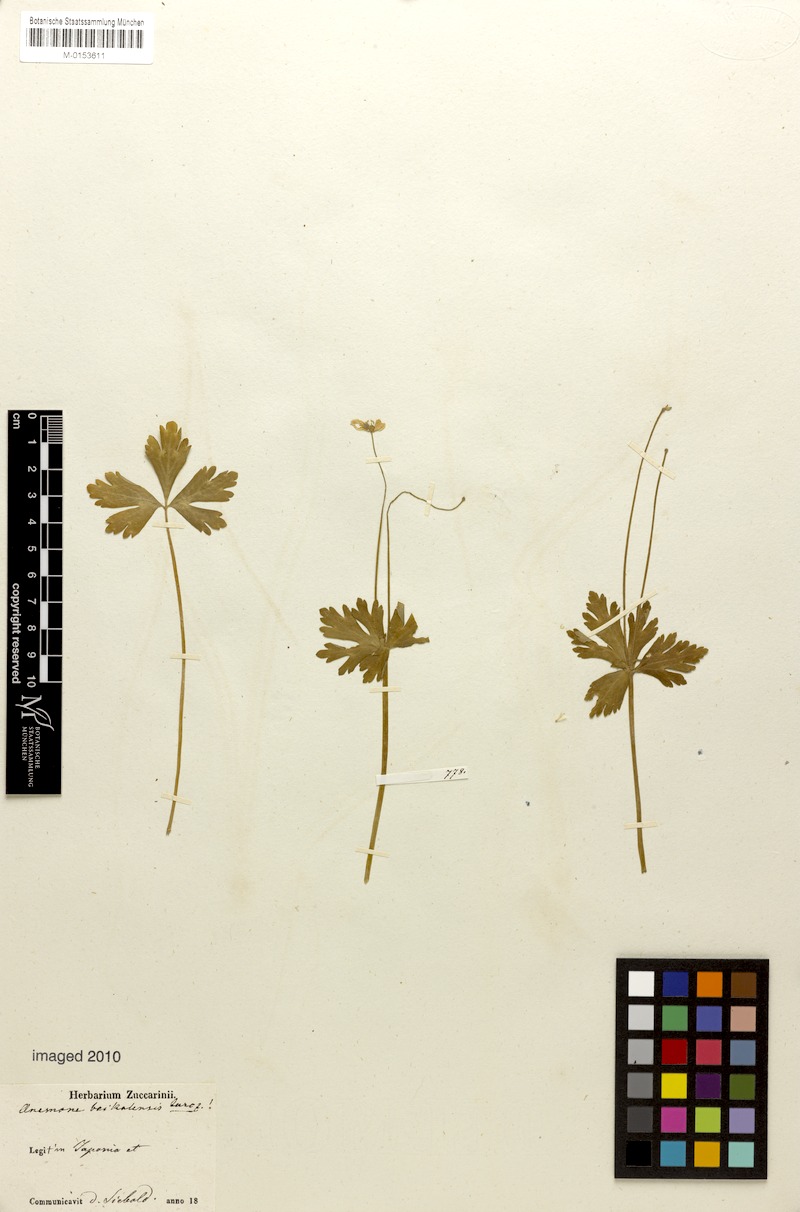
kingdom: Plantae
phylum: Tracheophyta
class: Magnoliopsida
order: Ranunculales
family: Ranunculaceae
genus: Anemonastrum
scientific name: Anemonastrum baicalense
